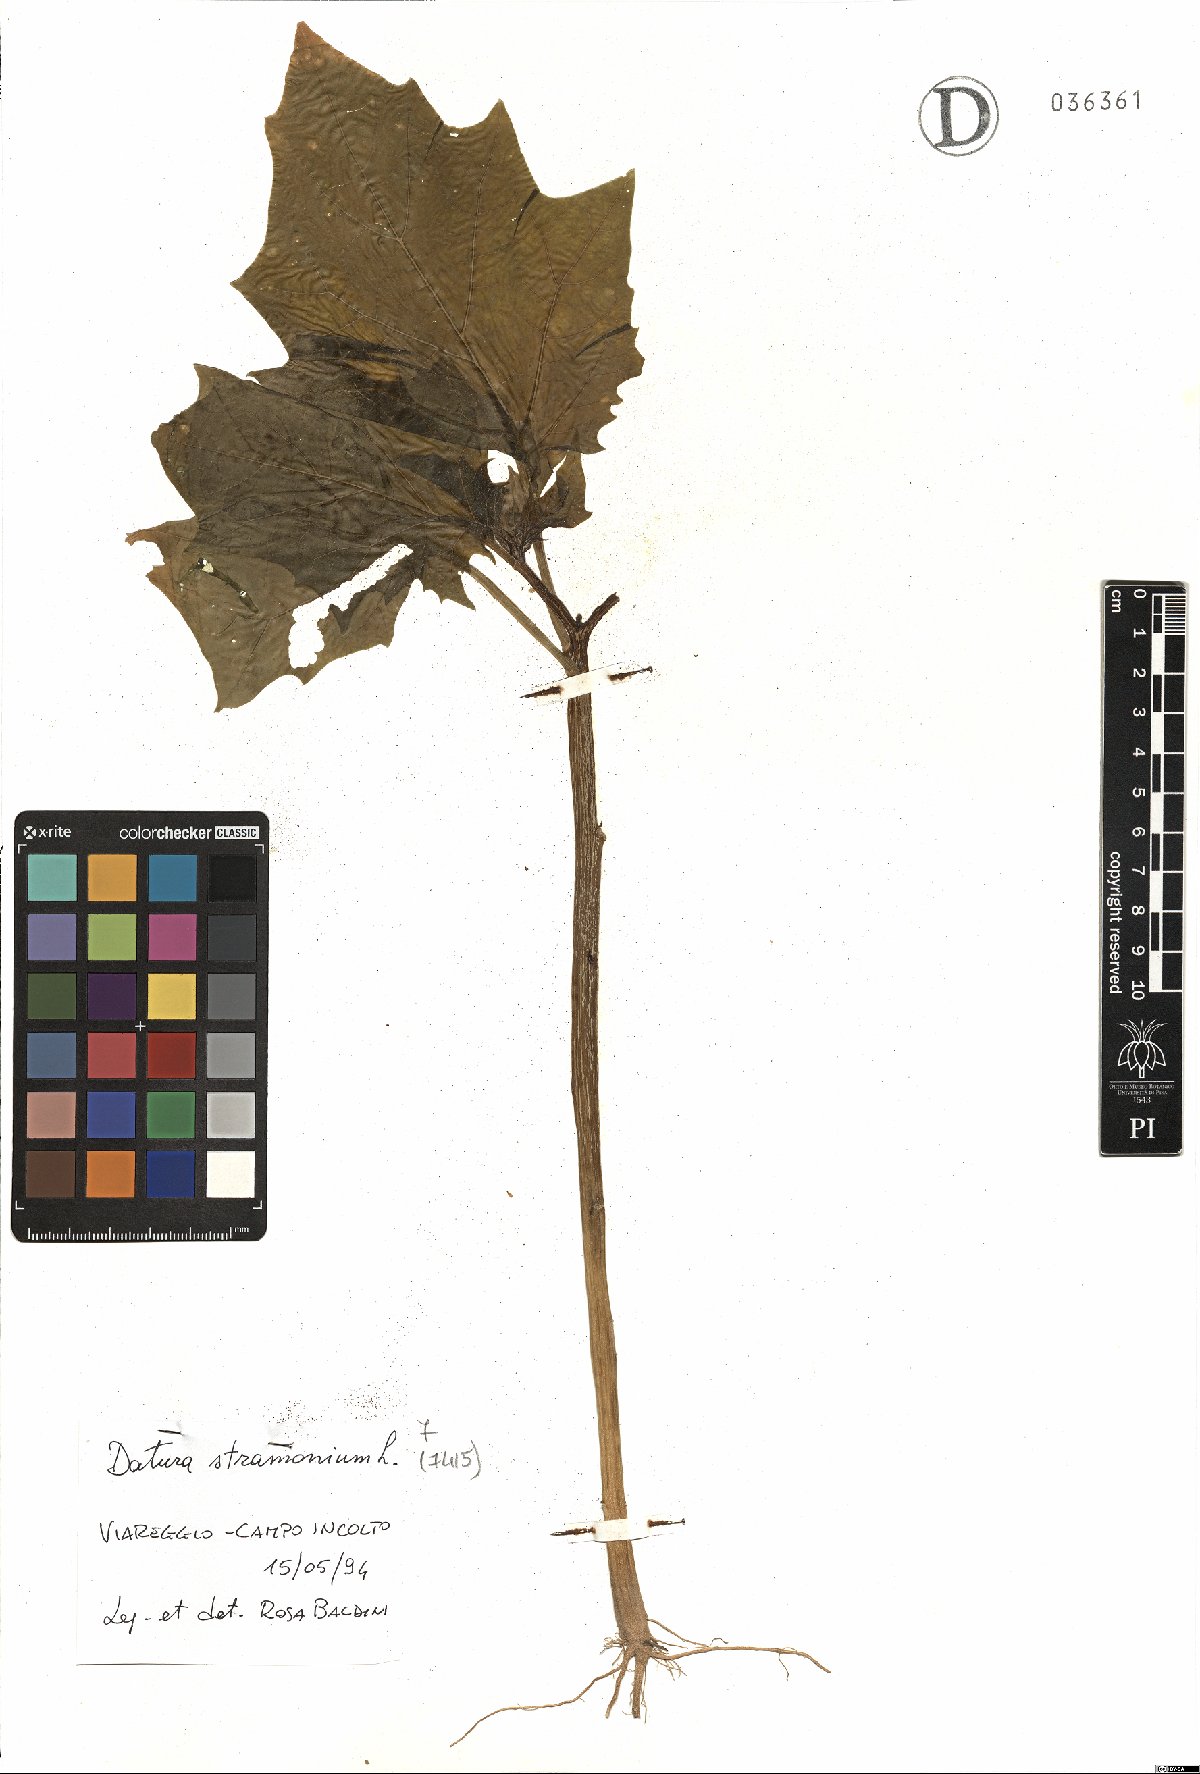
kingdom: Plantae
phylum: Tracheophyta
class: Magnoliopsida
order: Solanales
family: Solanaceae
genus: Datura
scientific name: Datura stramonium
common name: Thorn-apple
